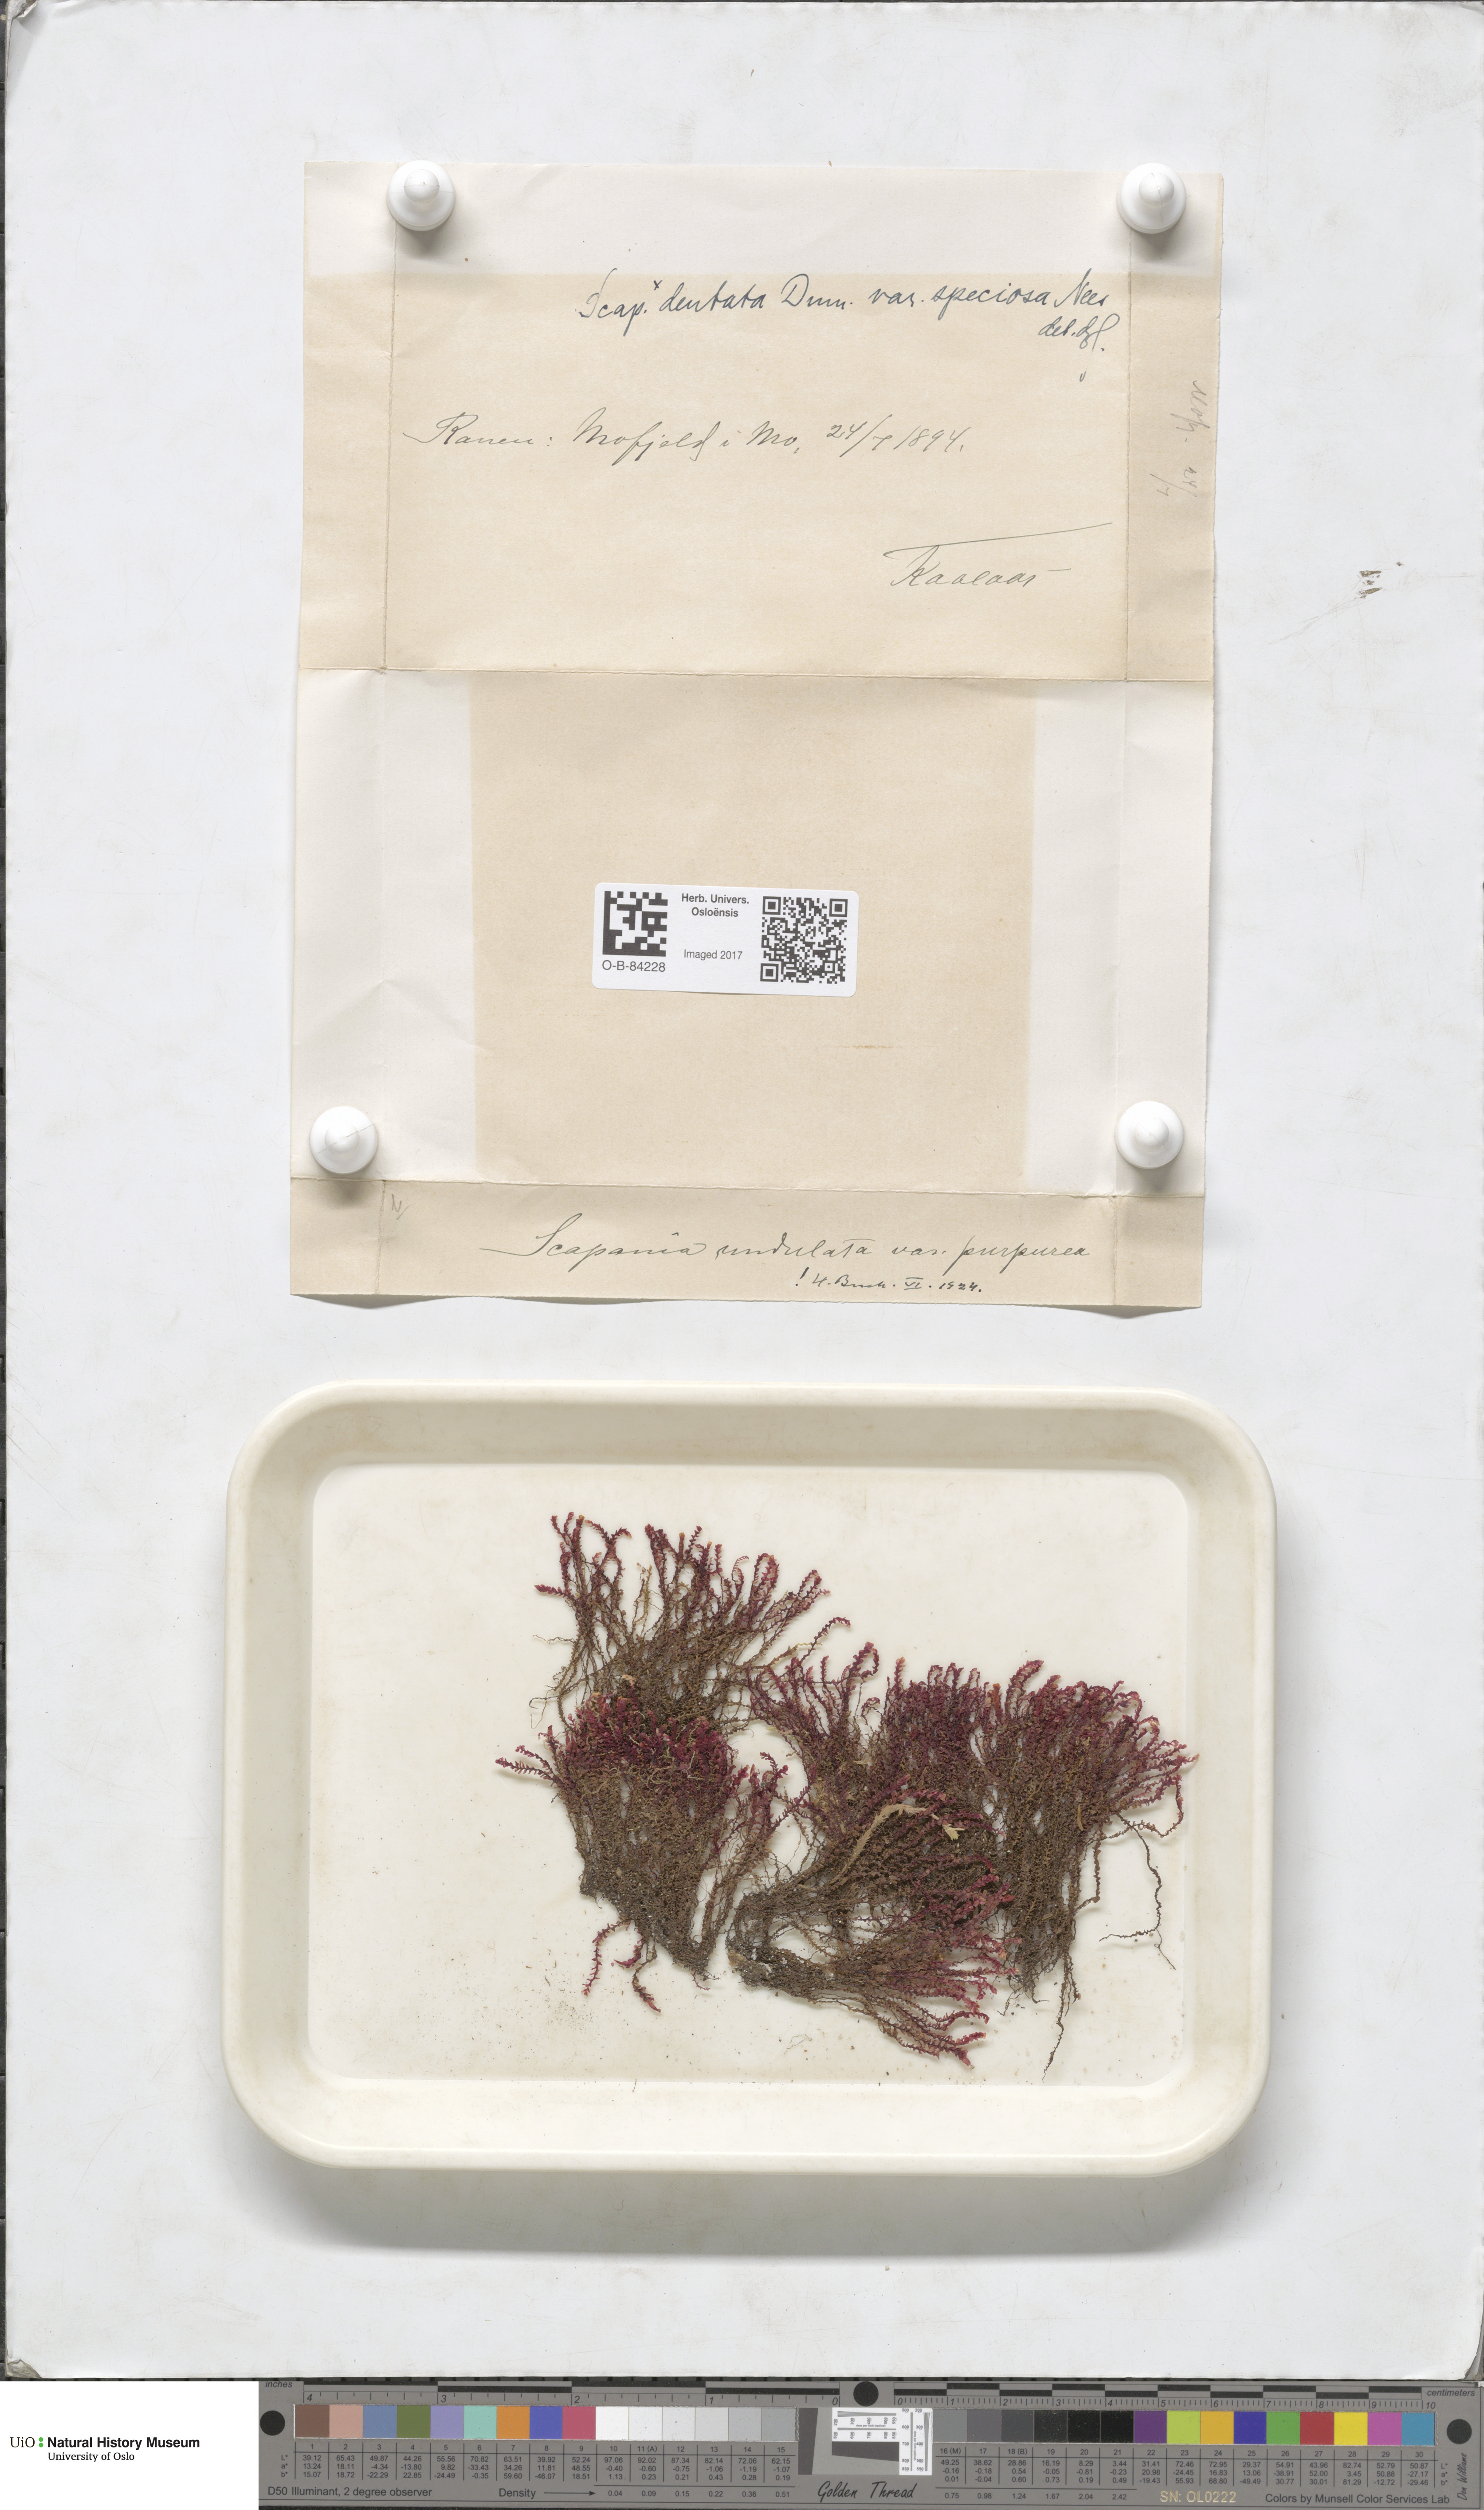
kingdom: Plantae
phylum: Marchantiophyta
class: Jungermanniopsida
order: Jungermanniales
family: Scapaniaceae
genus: Scapania
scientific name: Scapania undulata
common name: Water earwort
